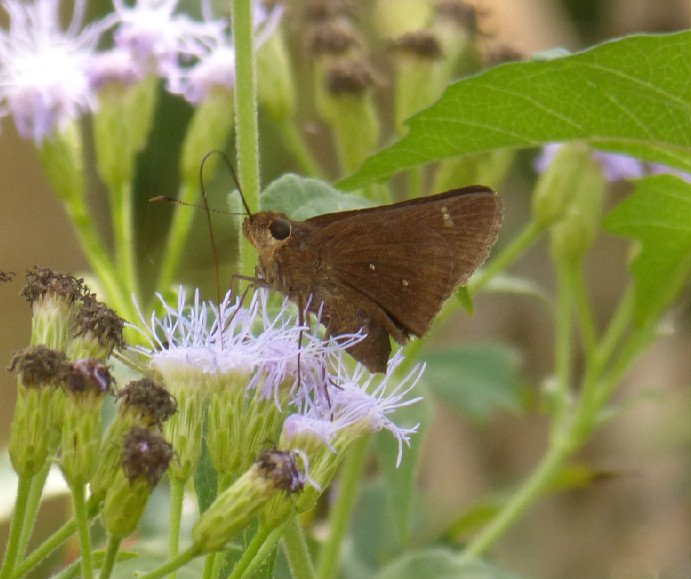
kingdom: Animalia
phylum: Arthropoda
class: Insecta
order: Lepidoptera
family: Hesperiidae
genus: Decinea
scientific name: Decinea percosius
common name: Double-dotted Skipper
